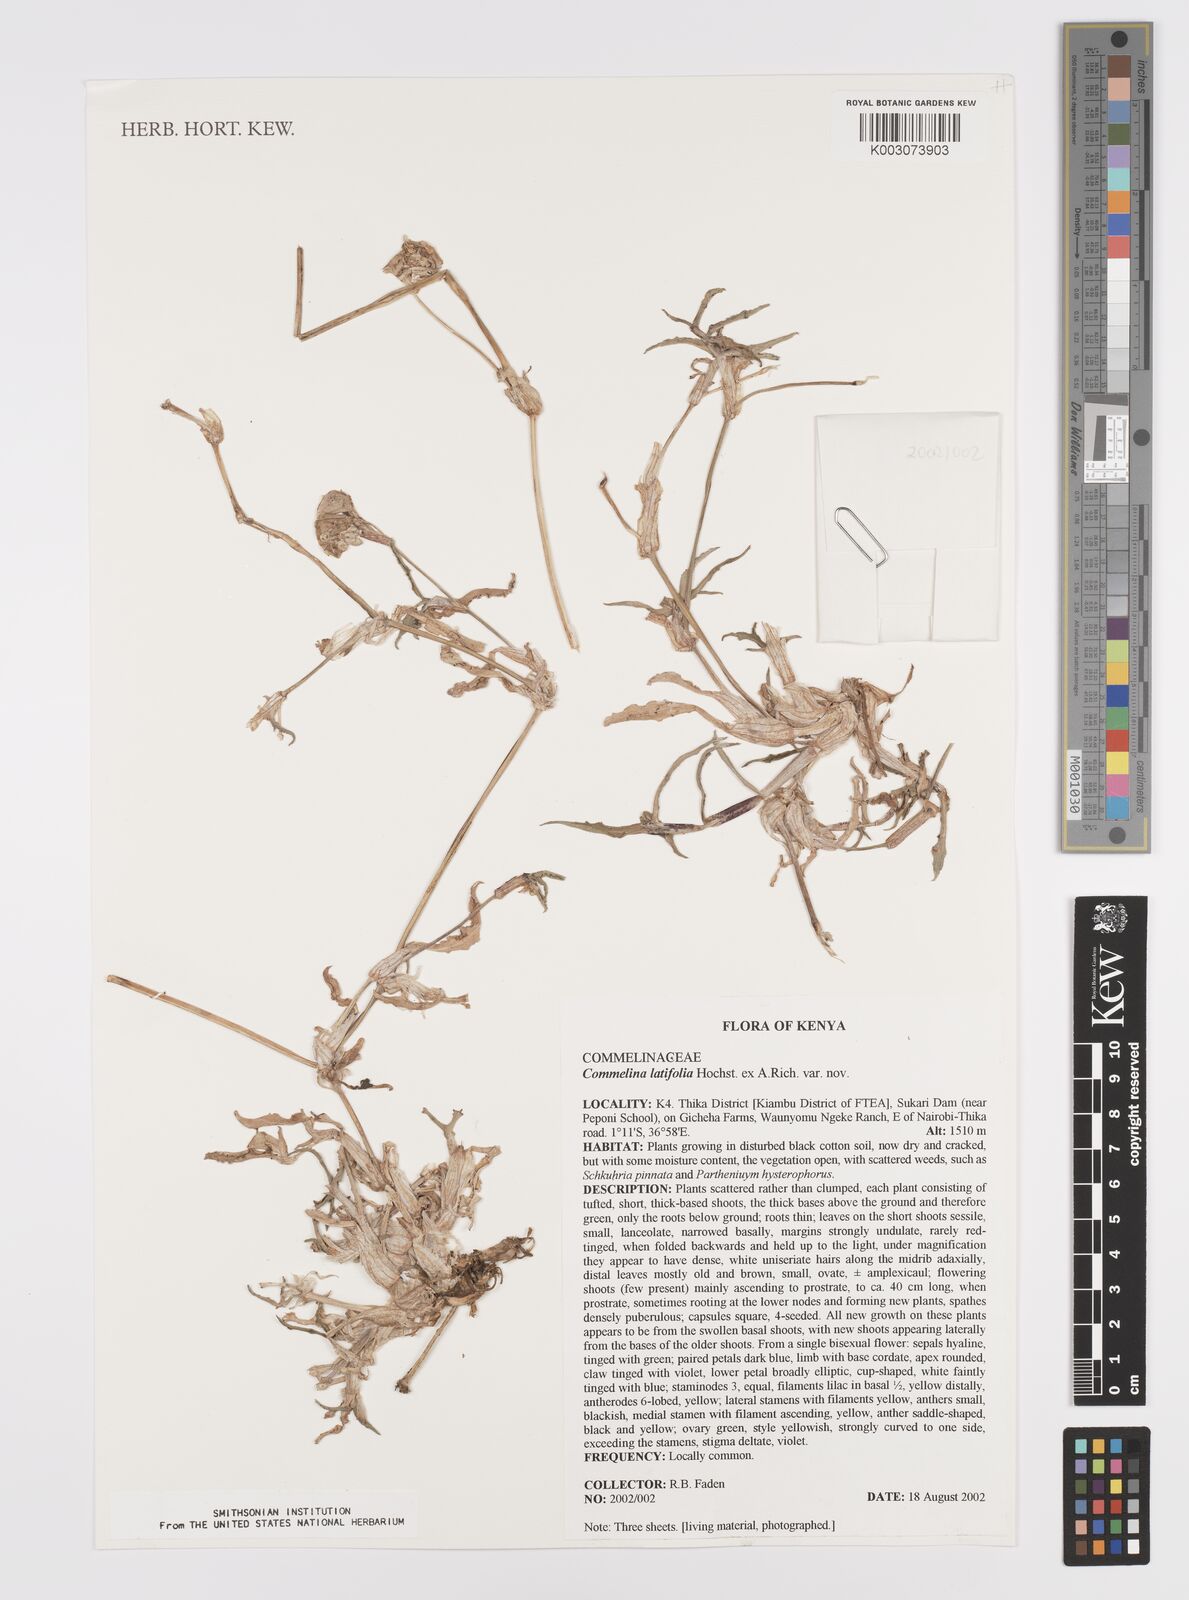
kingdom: Plantae
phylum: Tracheophyta
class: Liliopsida
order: Commelinales
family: Commelinaceae
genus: Commelina
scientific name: Commelina latifolia
